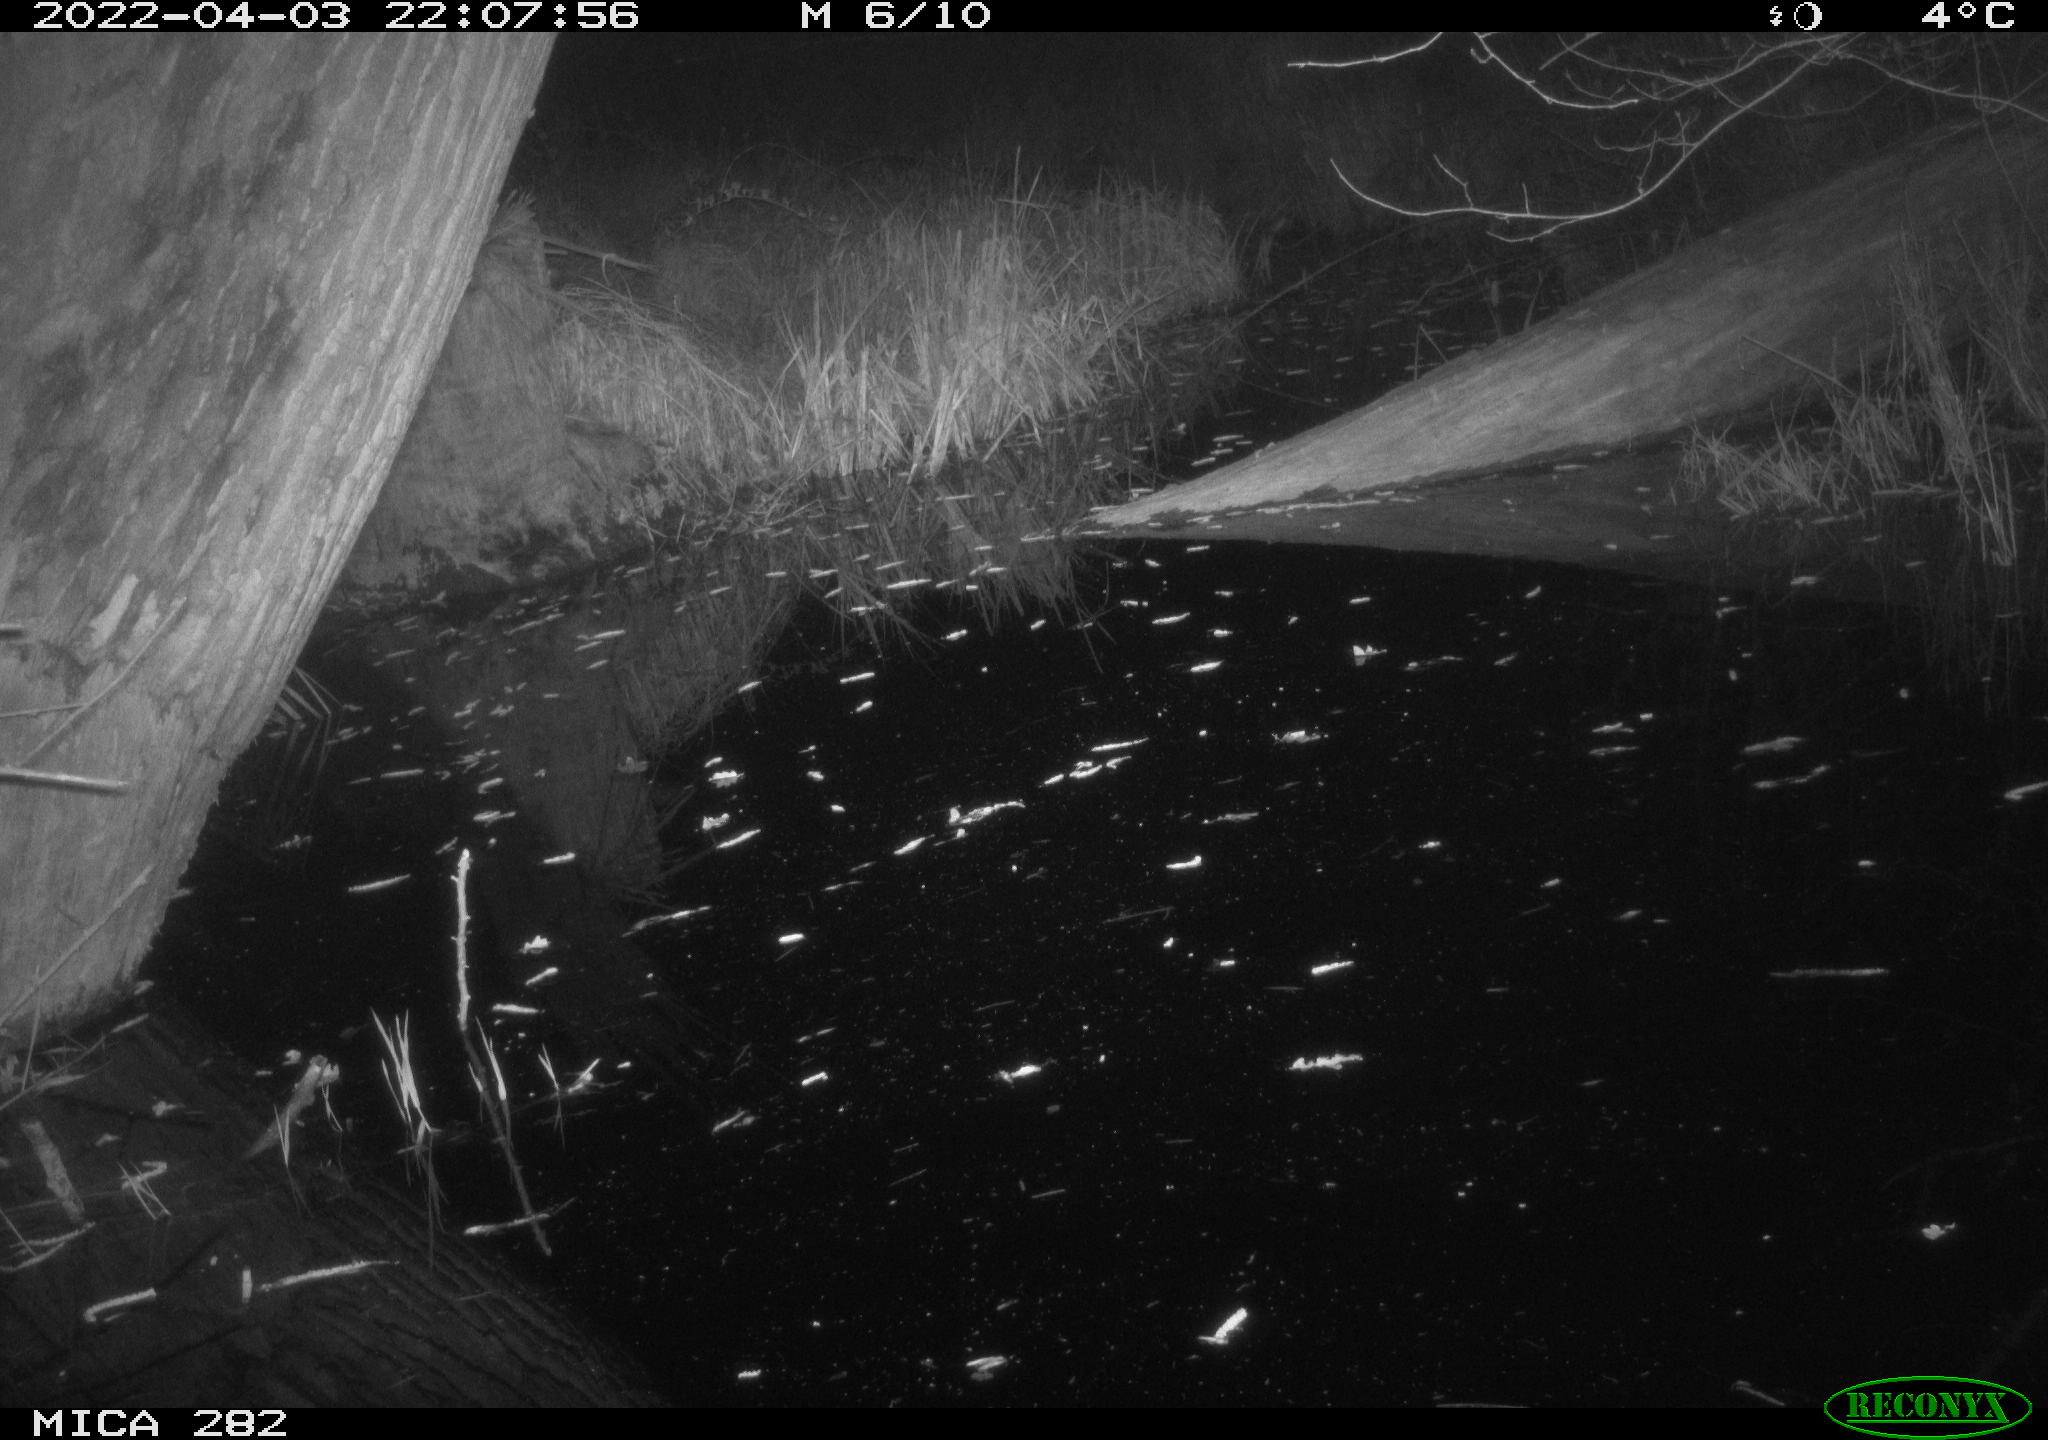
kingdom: Animalia
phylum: Chordata
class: Mammalia
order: Carnivora
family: Canidae
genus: Vulpes
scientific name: Vulpes vulpes
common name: Red fox
